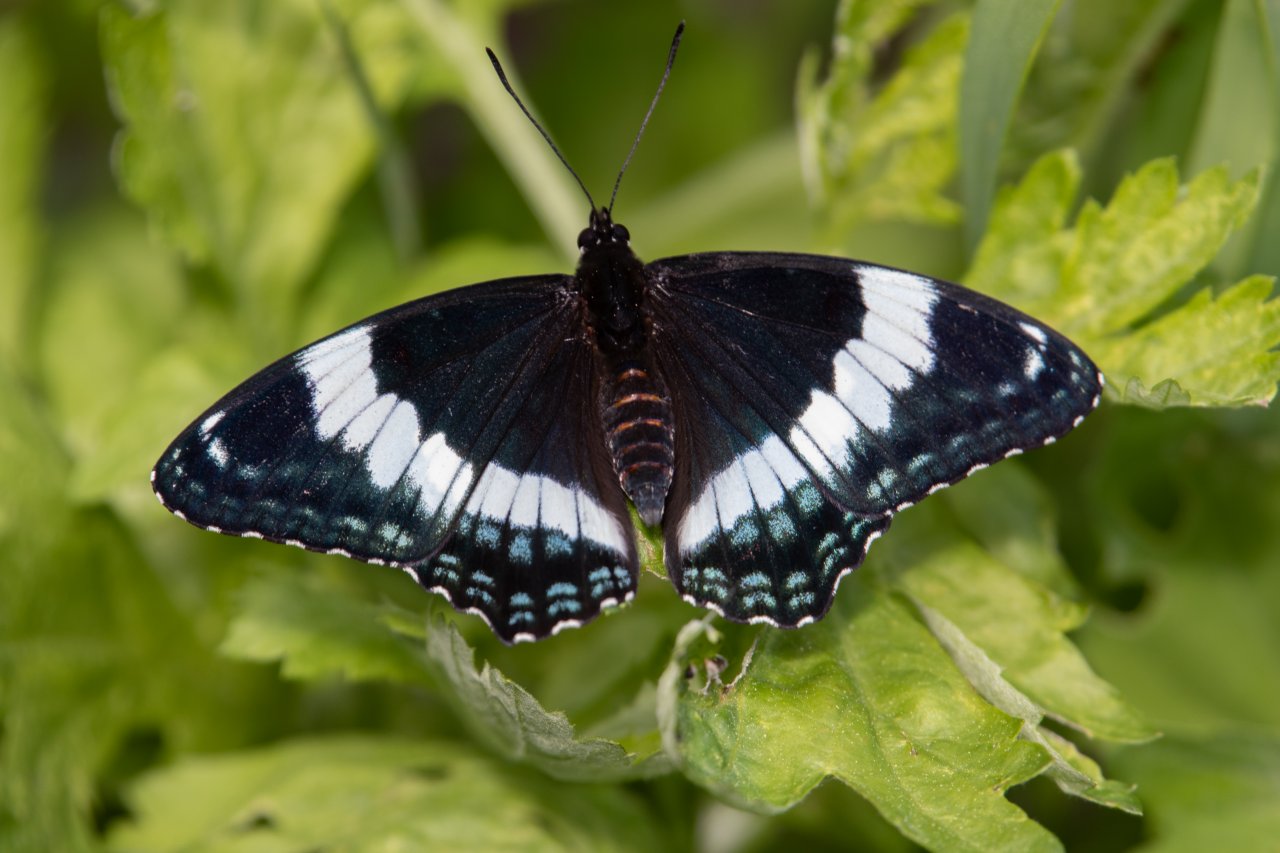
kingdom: Animalia
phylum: Arthropoda
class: Insecta
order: Lepidoptera
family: Nymphalidae
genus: Limenitis
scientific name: Limenitis arthemis
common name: Red-spotted Admiral
